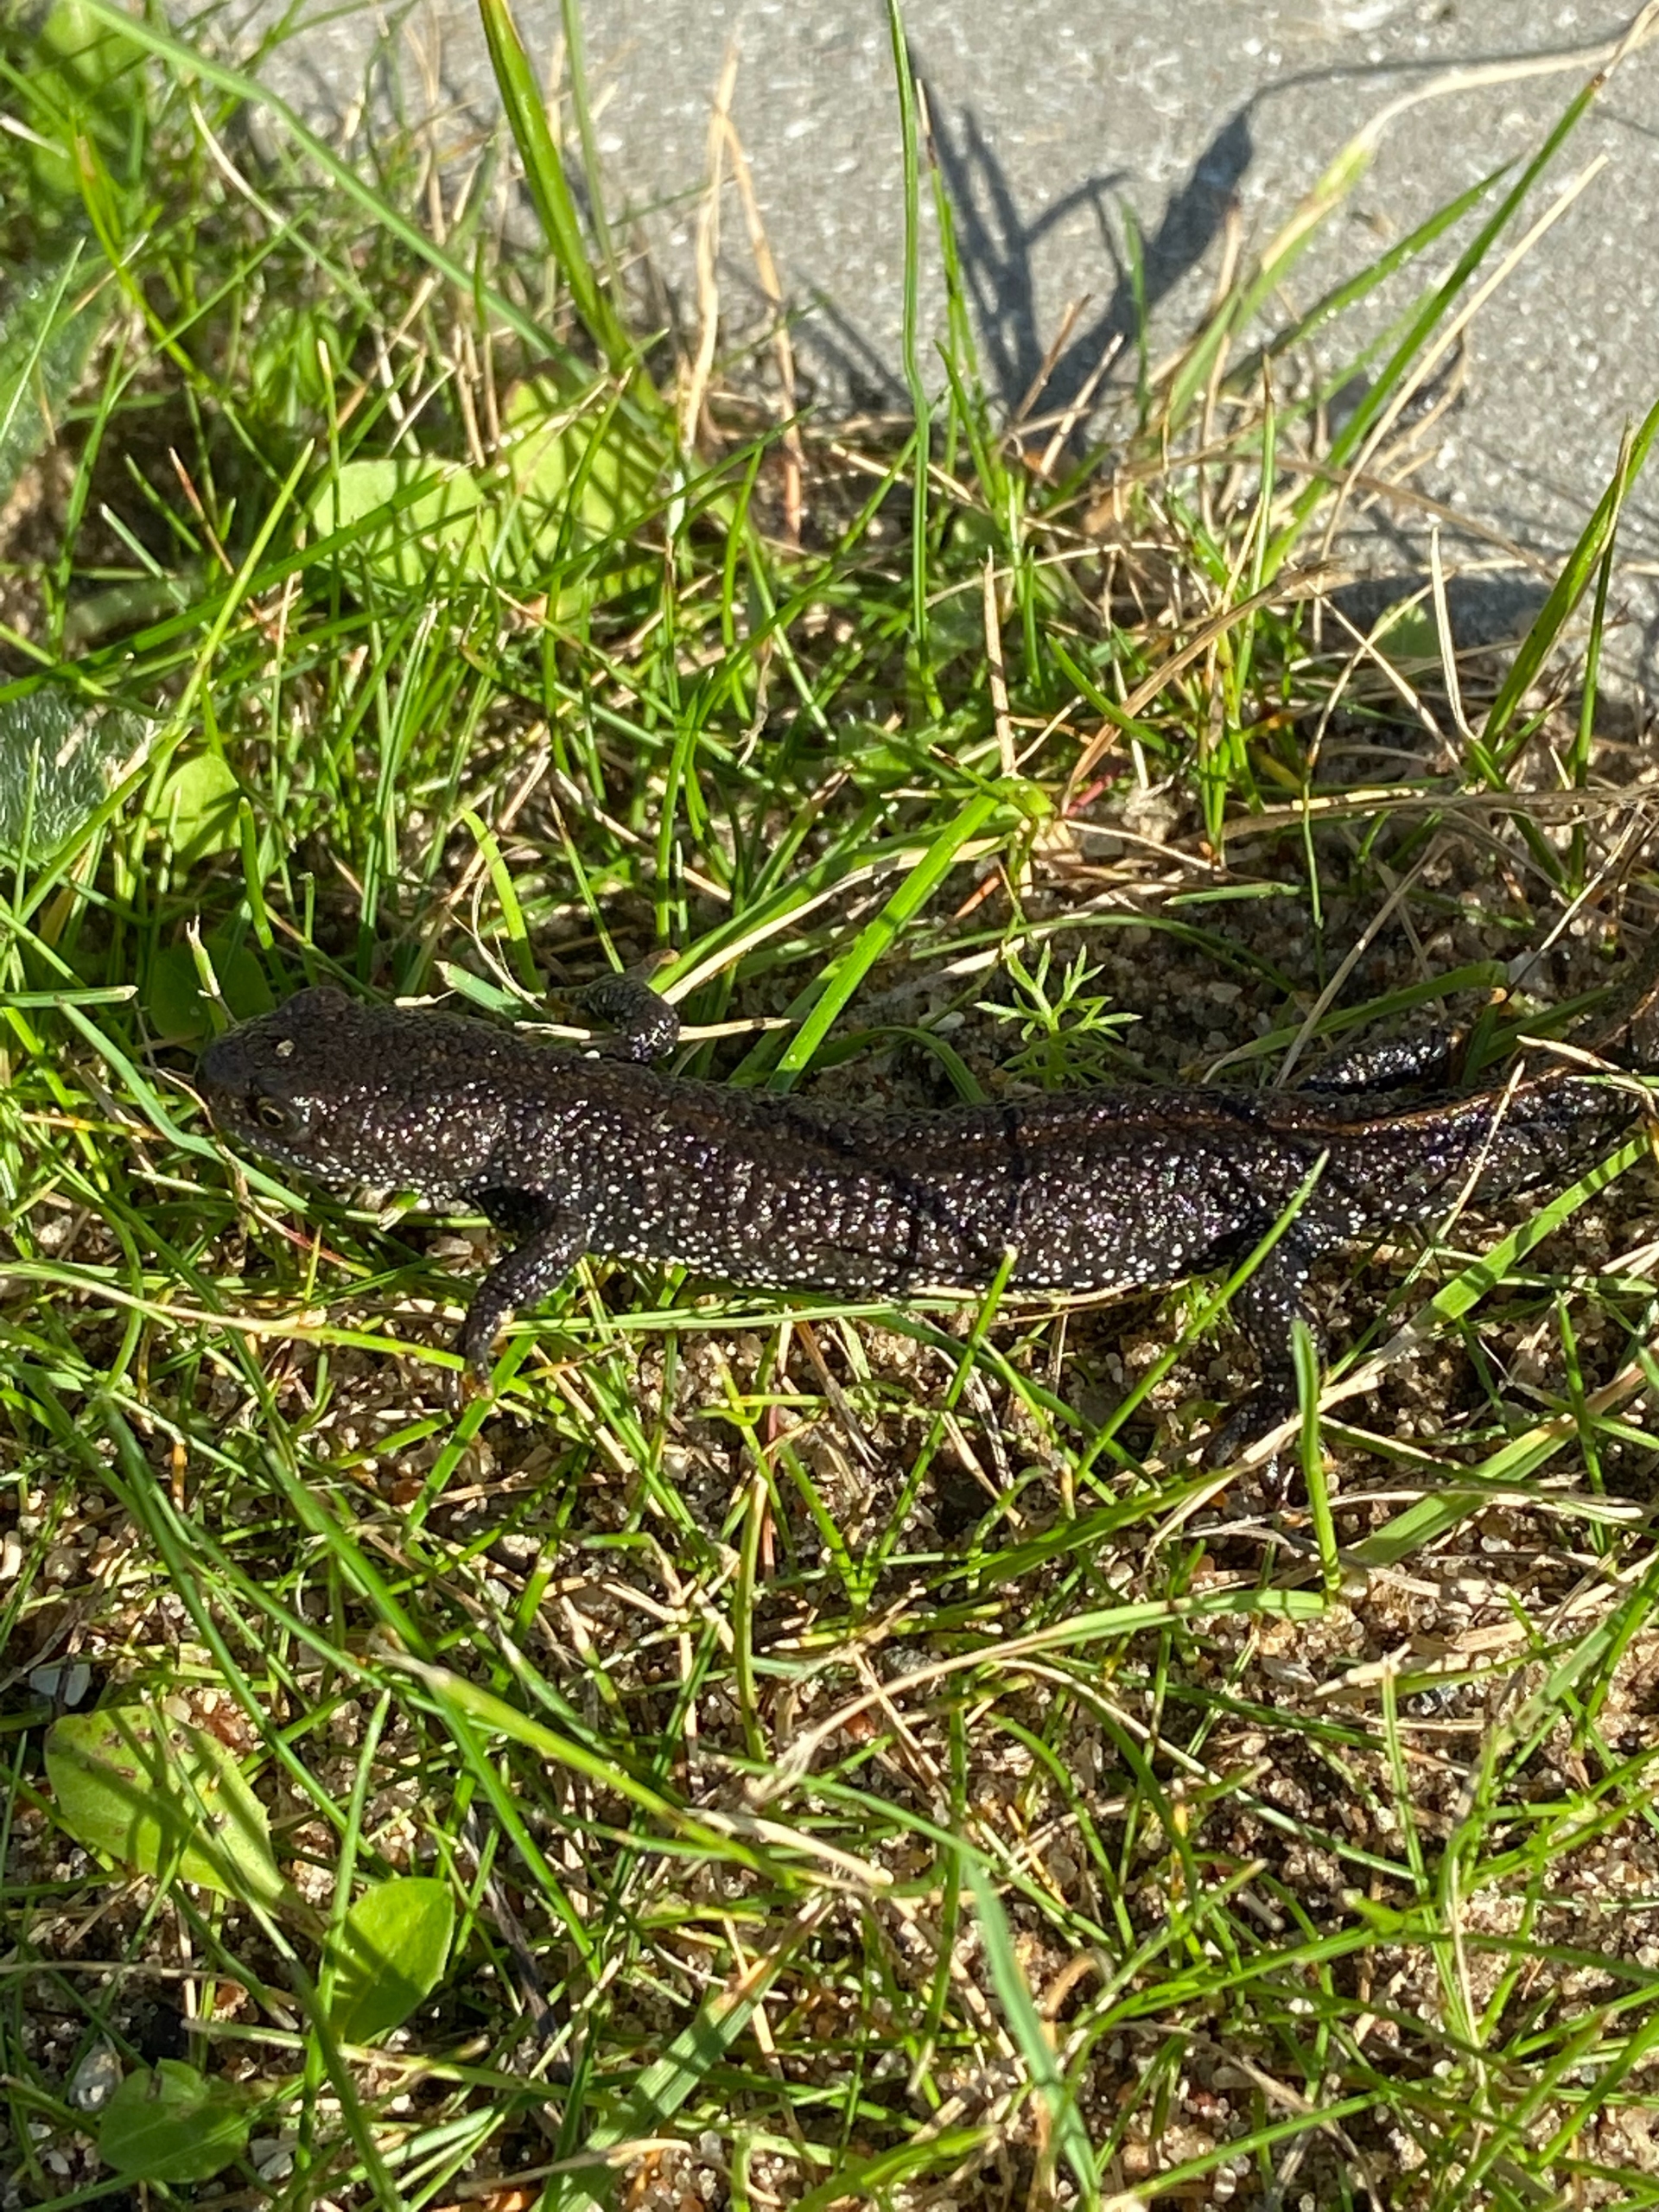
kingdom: Animalia
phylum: Chordata
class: Amphibia
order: Caudata
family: Salamandridae
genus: Triturus
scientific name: Triturus cristatus
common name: Stor vandsalamander
